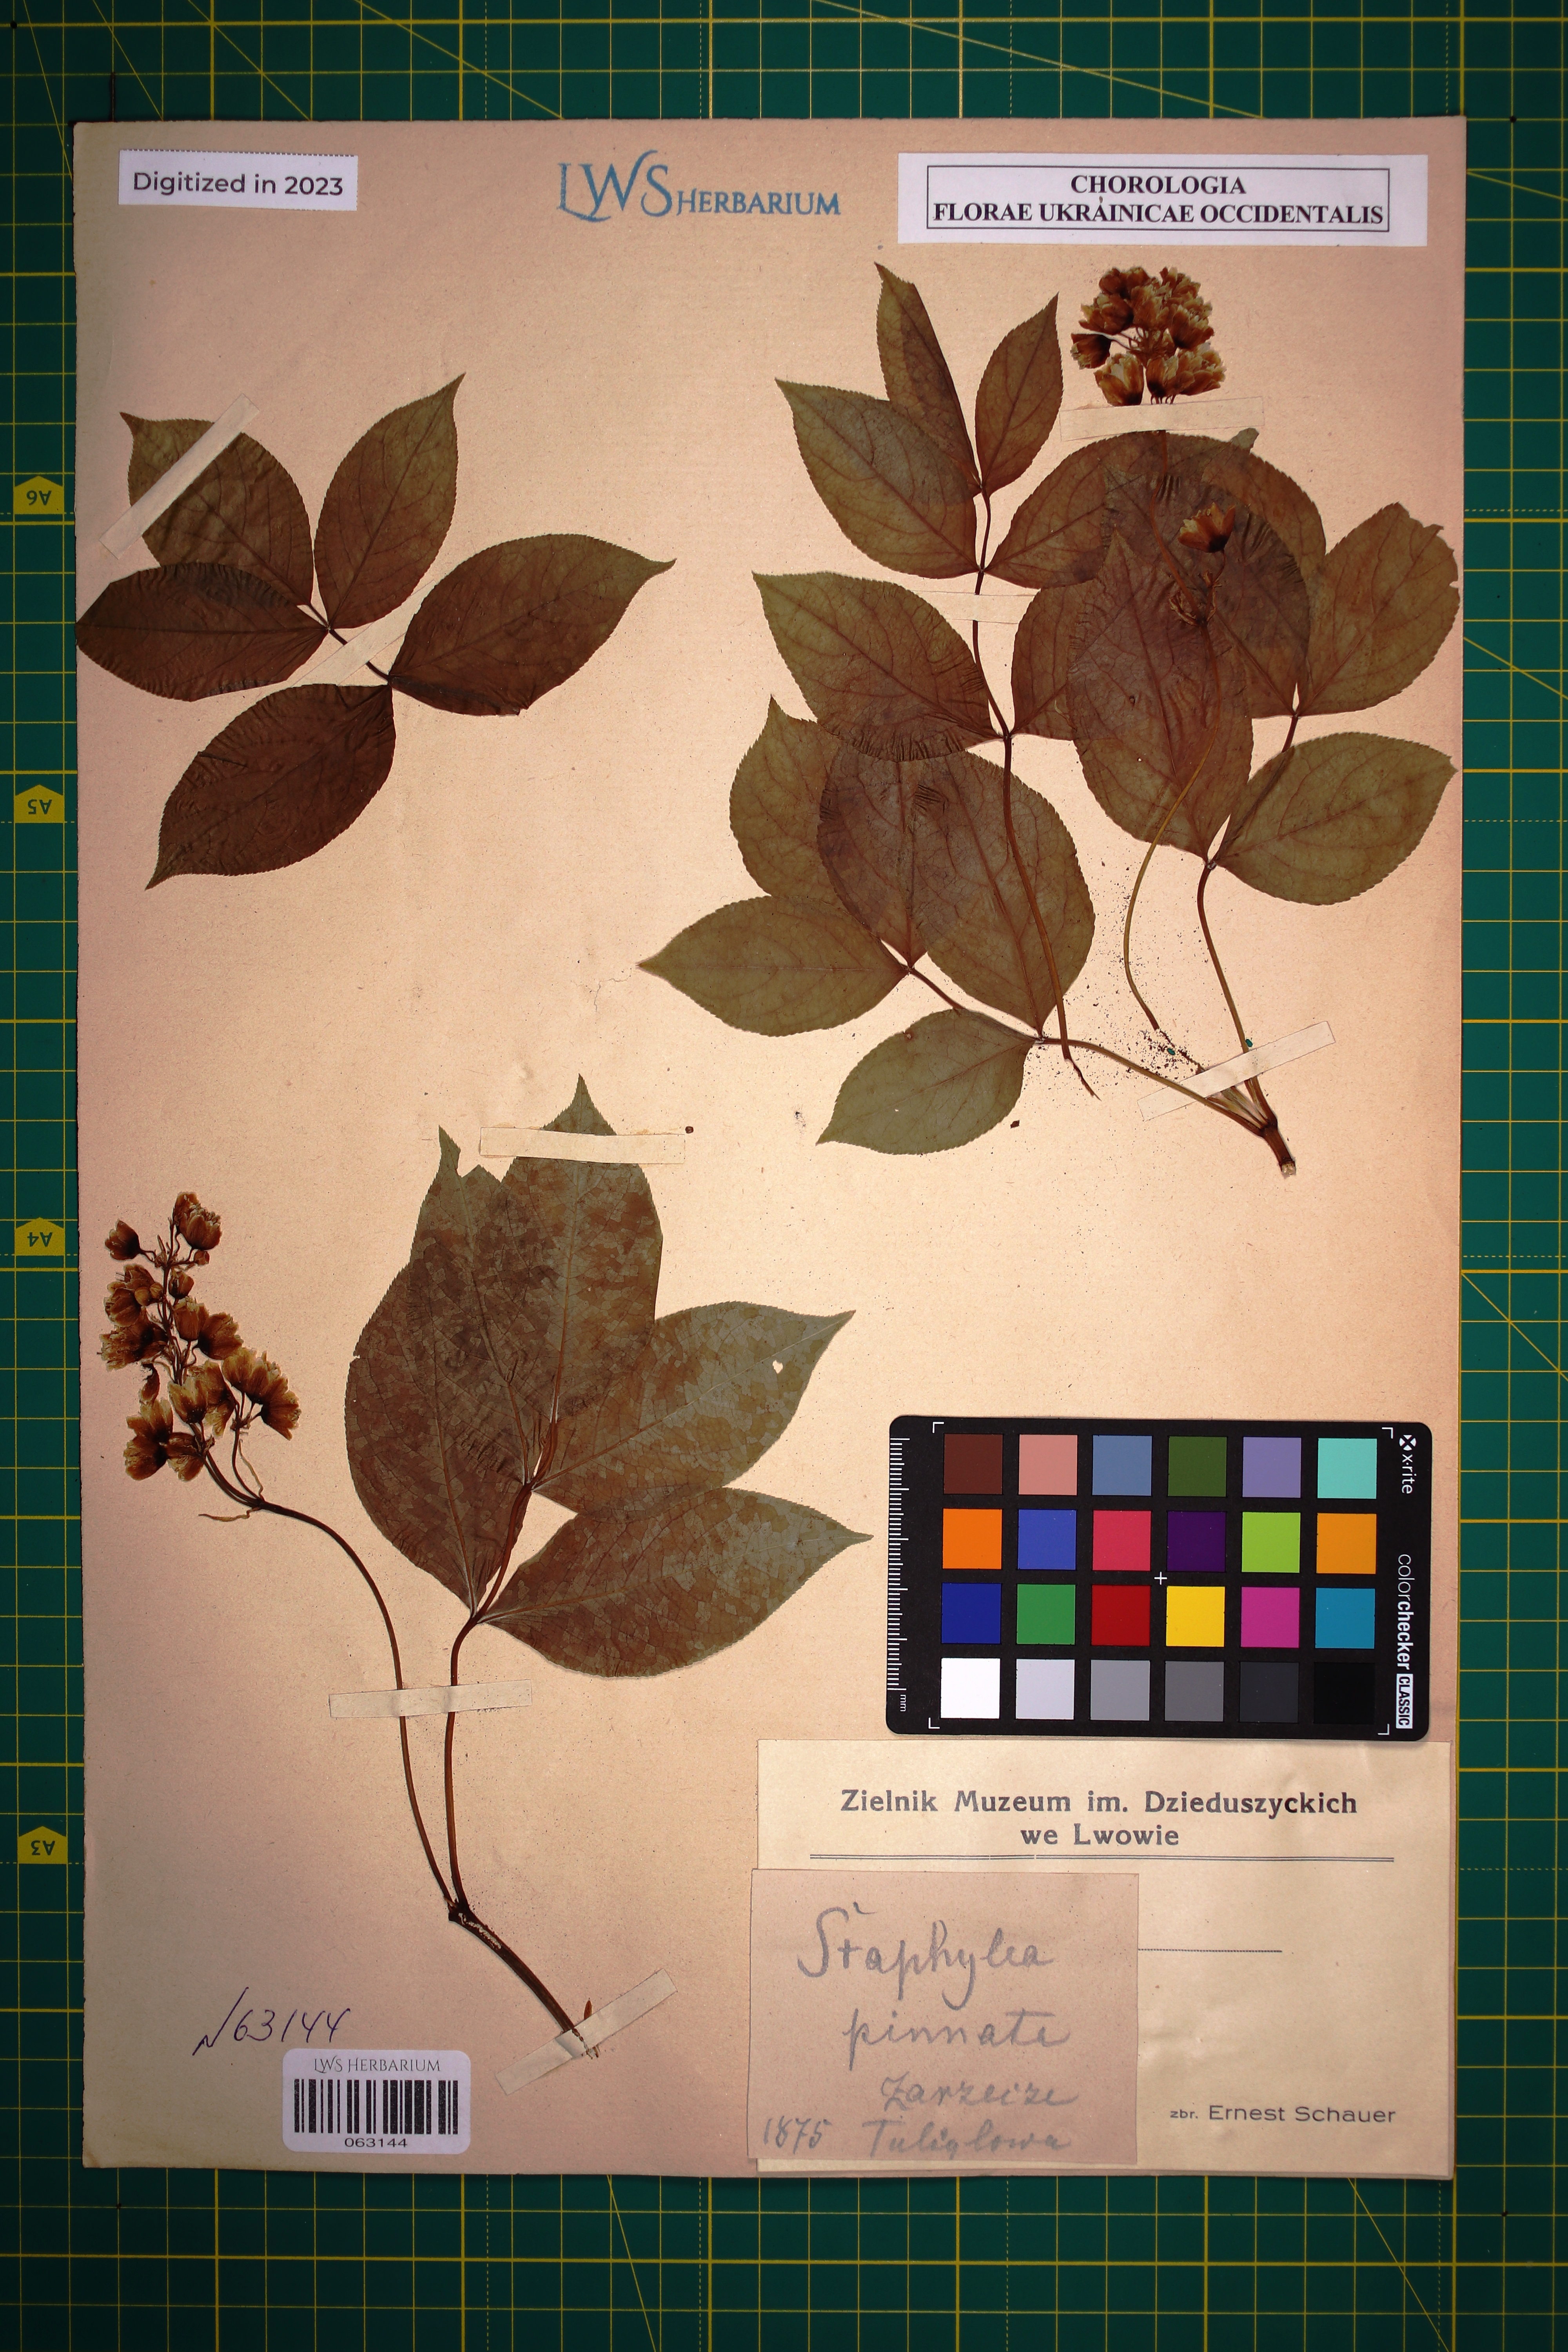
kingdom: Plantae
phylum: Tracheophyta
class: Magnoliopsida
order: Crossosomatales
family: Staphyleaceae
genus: Staphylea
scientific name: Staphylea pinnata
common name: Bladdernut
